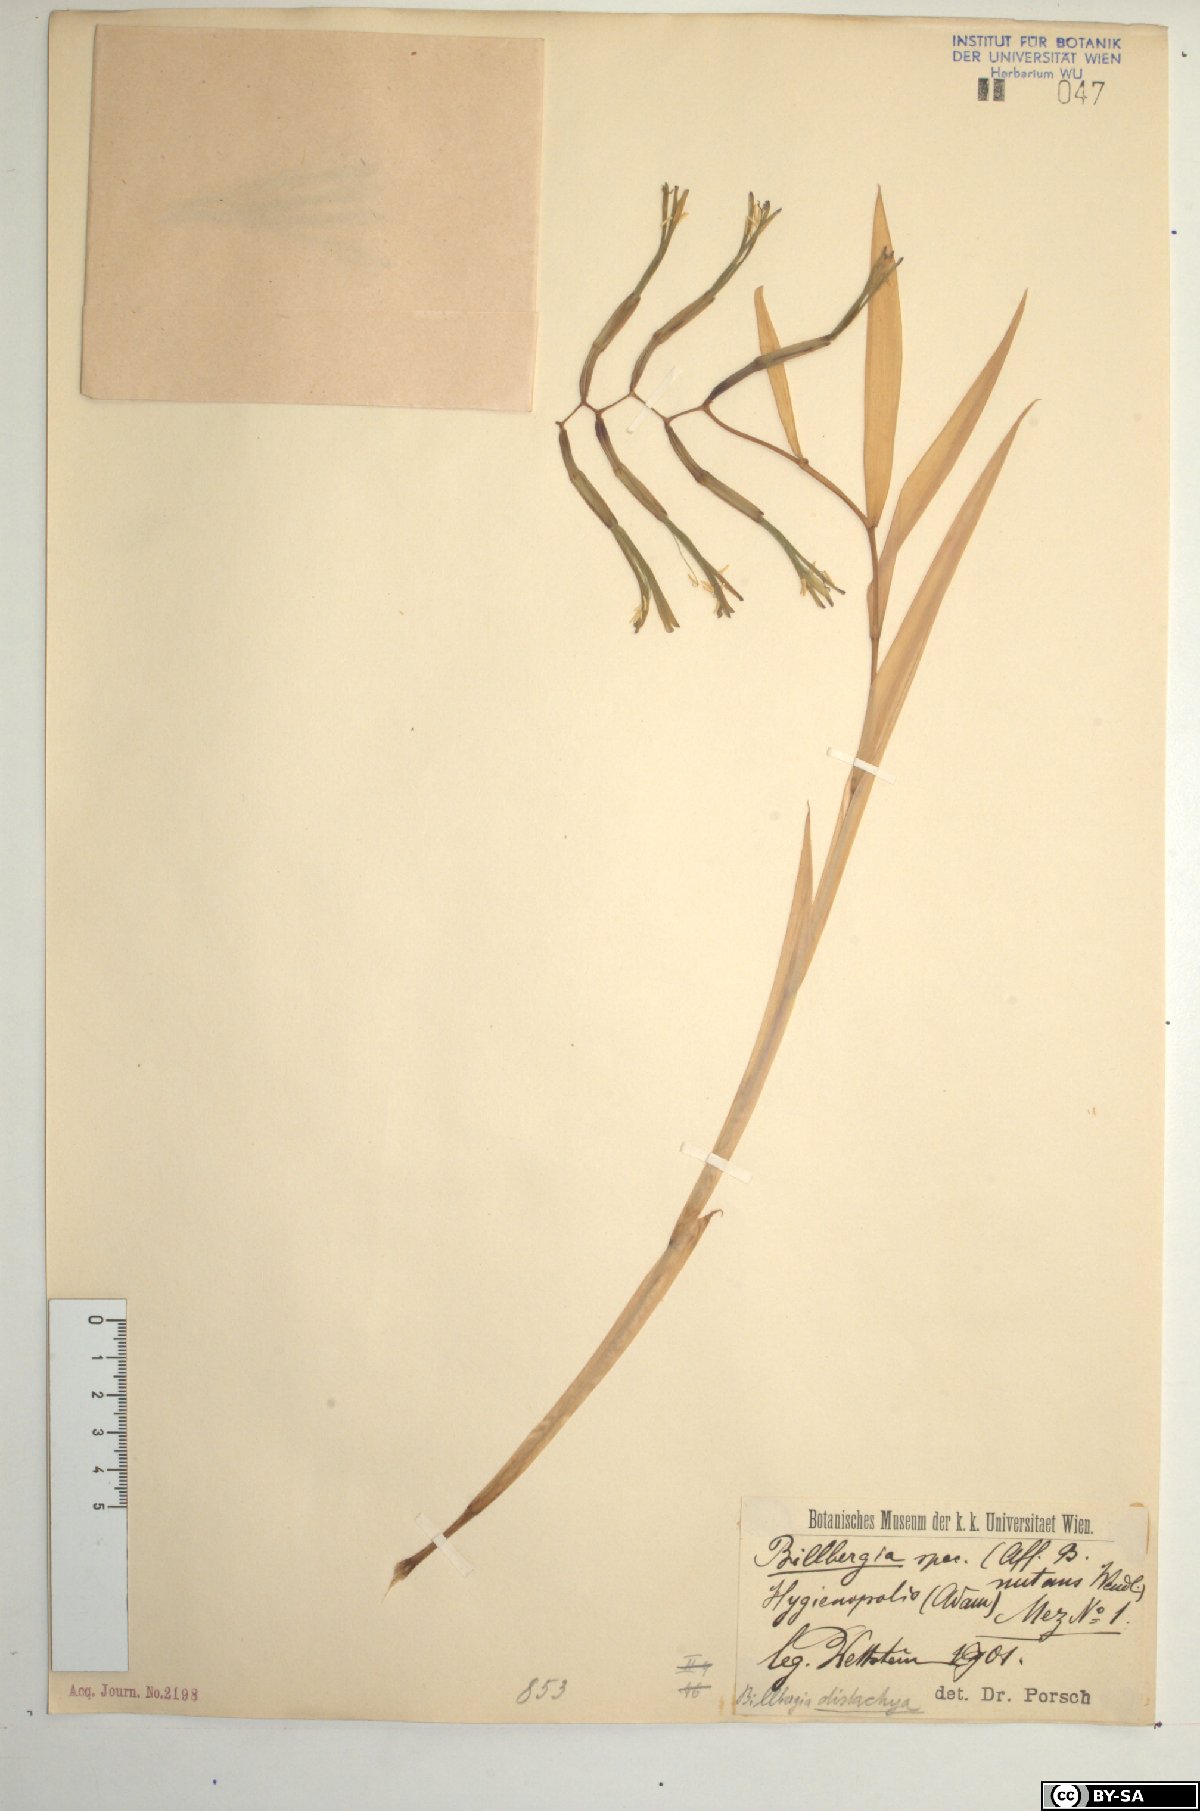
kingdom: Plantae
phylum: Tracheophyta
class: Liliopsida
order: Poales
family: Bromeliaceae
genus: Billbergia
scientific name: Billbergia distachia
